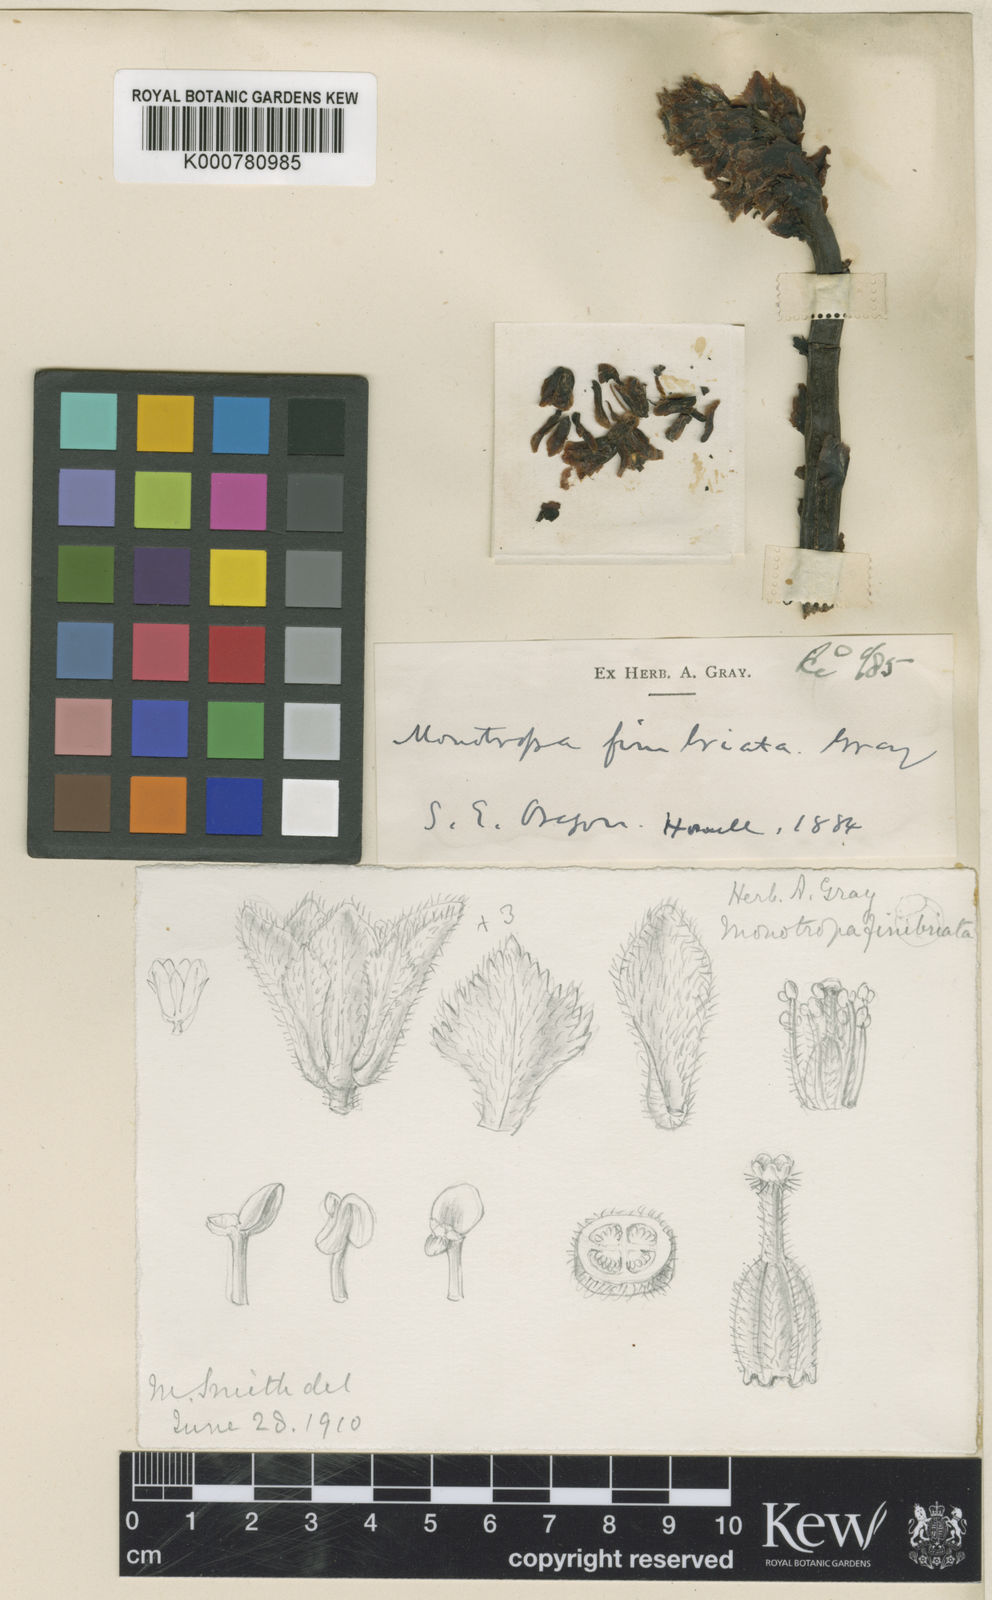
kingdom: Plantae
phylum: Tracheophyta
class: Magnoliopsida
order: Ericales
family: Ericaceae
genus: Hypopitys
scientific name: Hypopitys monotropa
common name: Yellow bird's-nest
